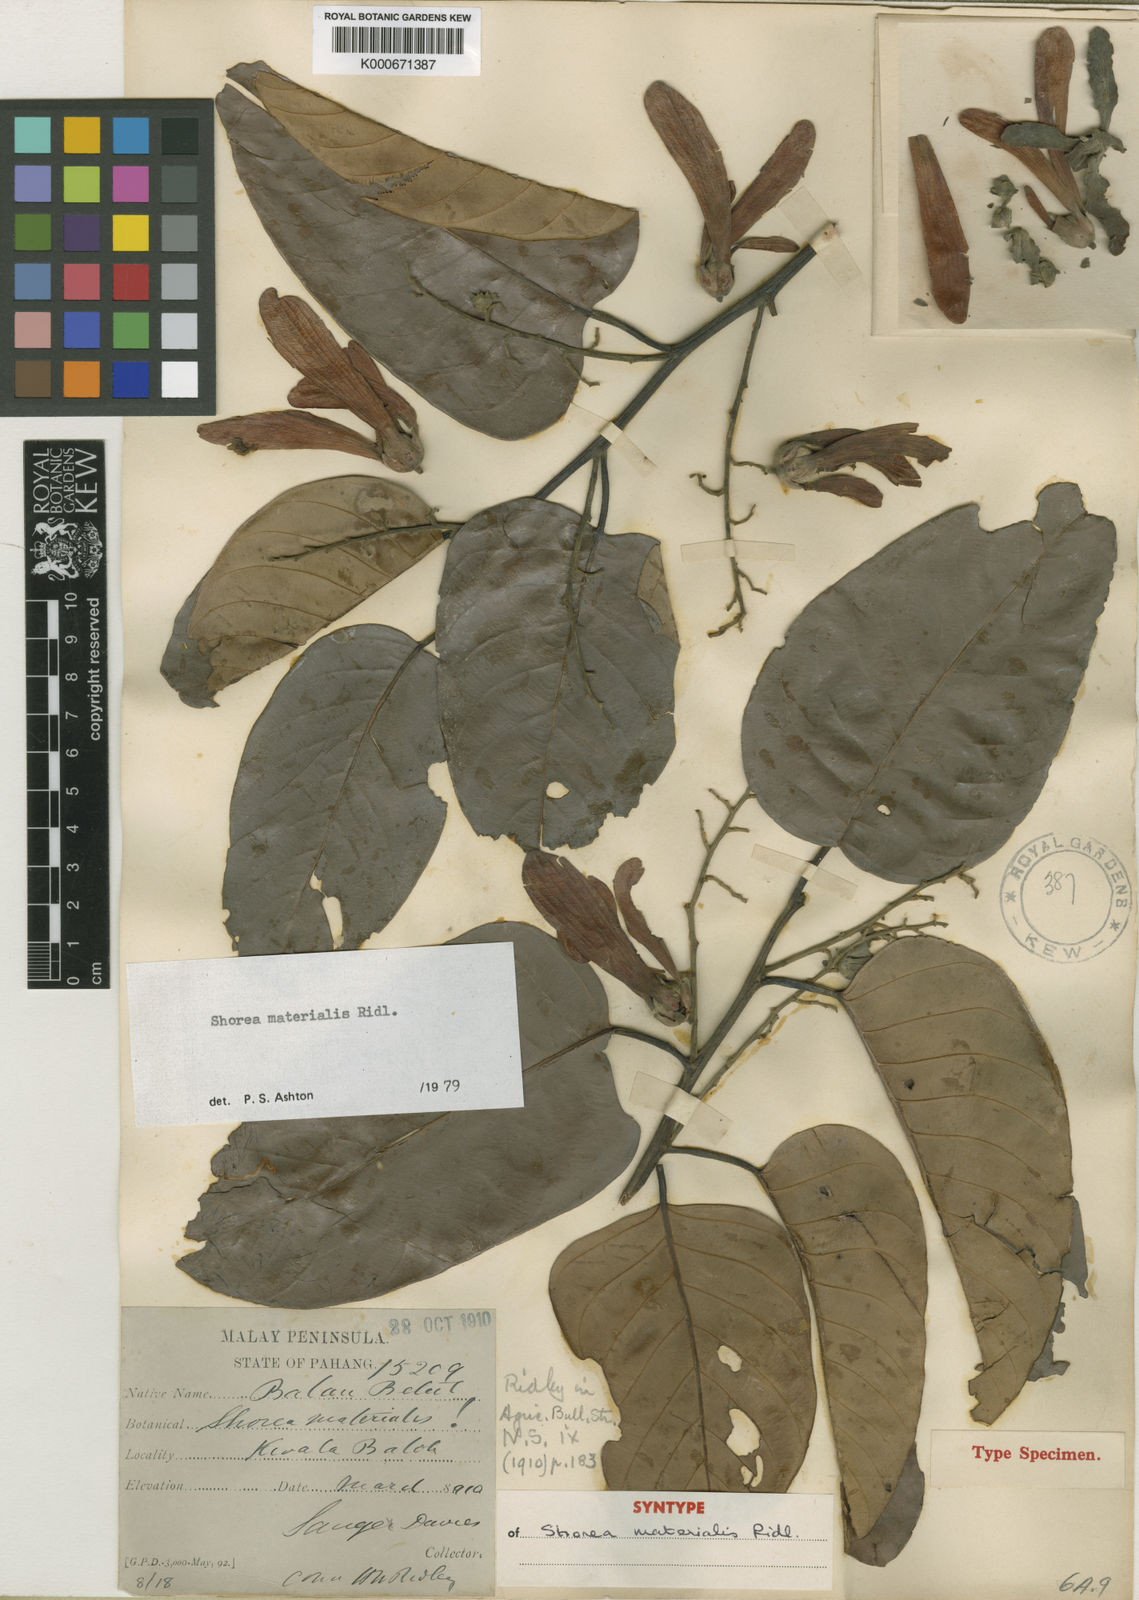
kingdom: Plantae
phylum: Tracheophyta
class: Magnoliopsida
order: Malvales
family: Dipterocarpaceae
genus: Shorea
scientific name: Shorea materialis
